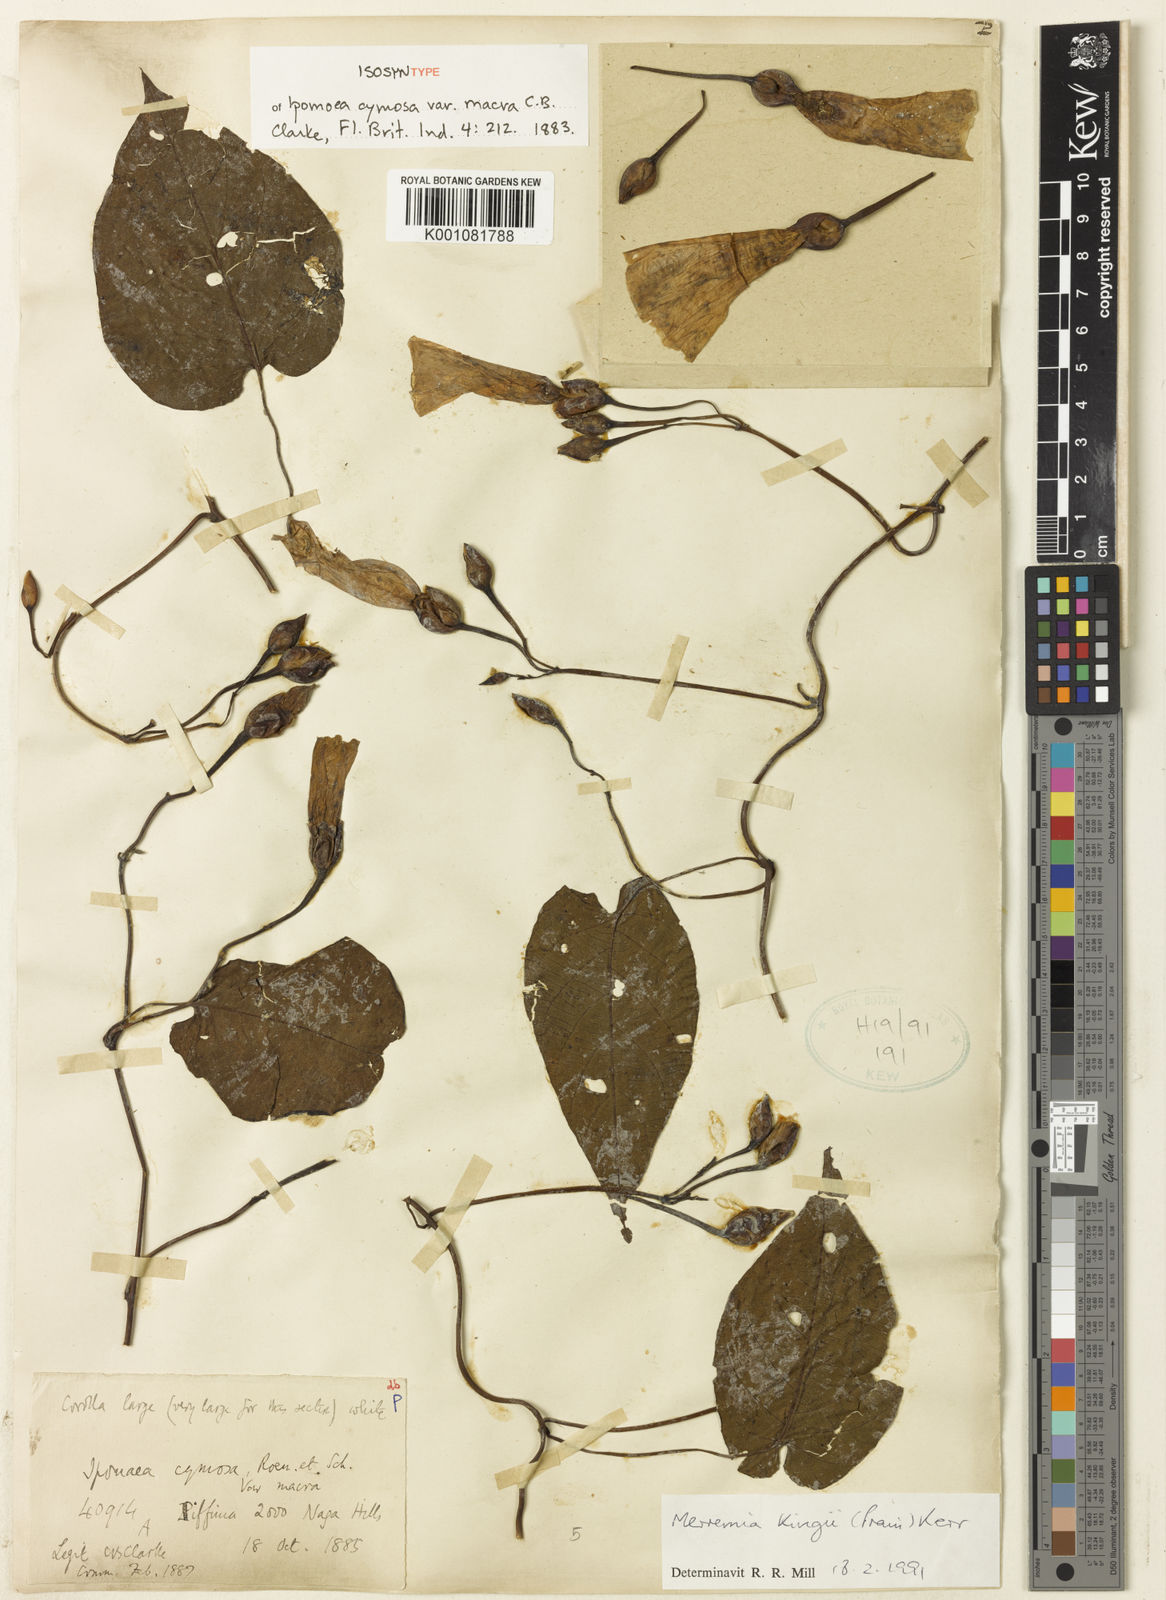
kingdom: Plantae
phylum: Tracheophyta
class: Magnoliopsida
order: Solanales
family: Convolvulaceae
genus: Camonea
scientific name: Camonea
